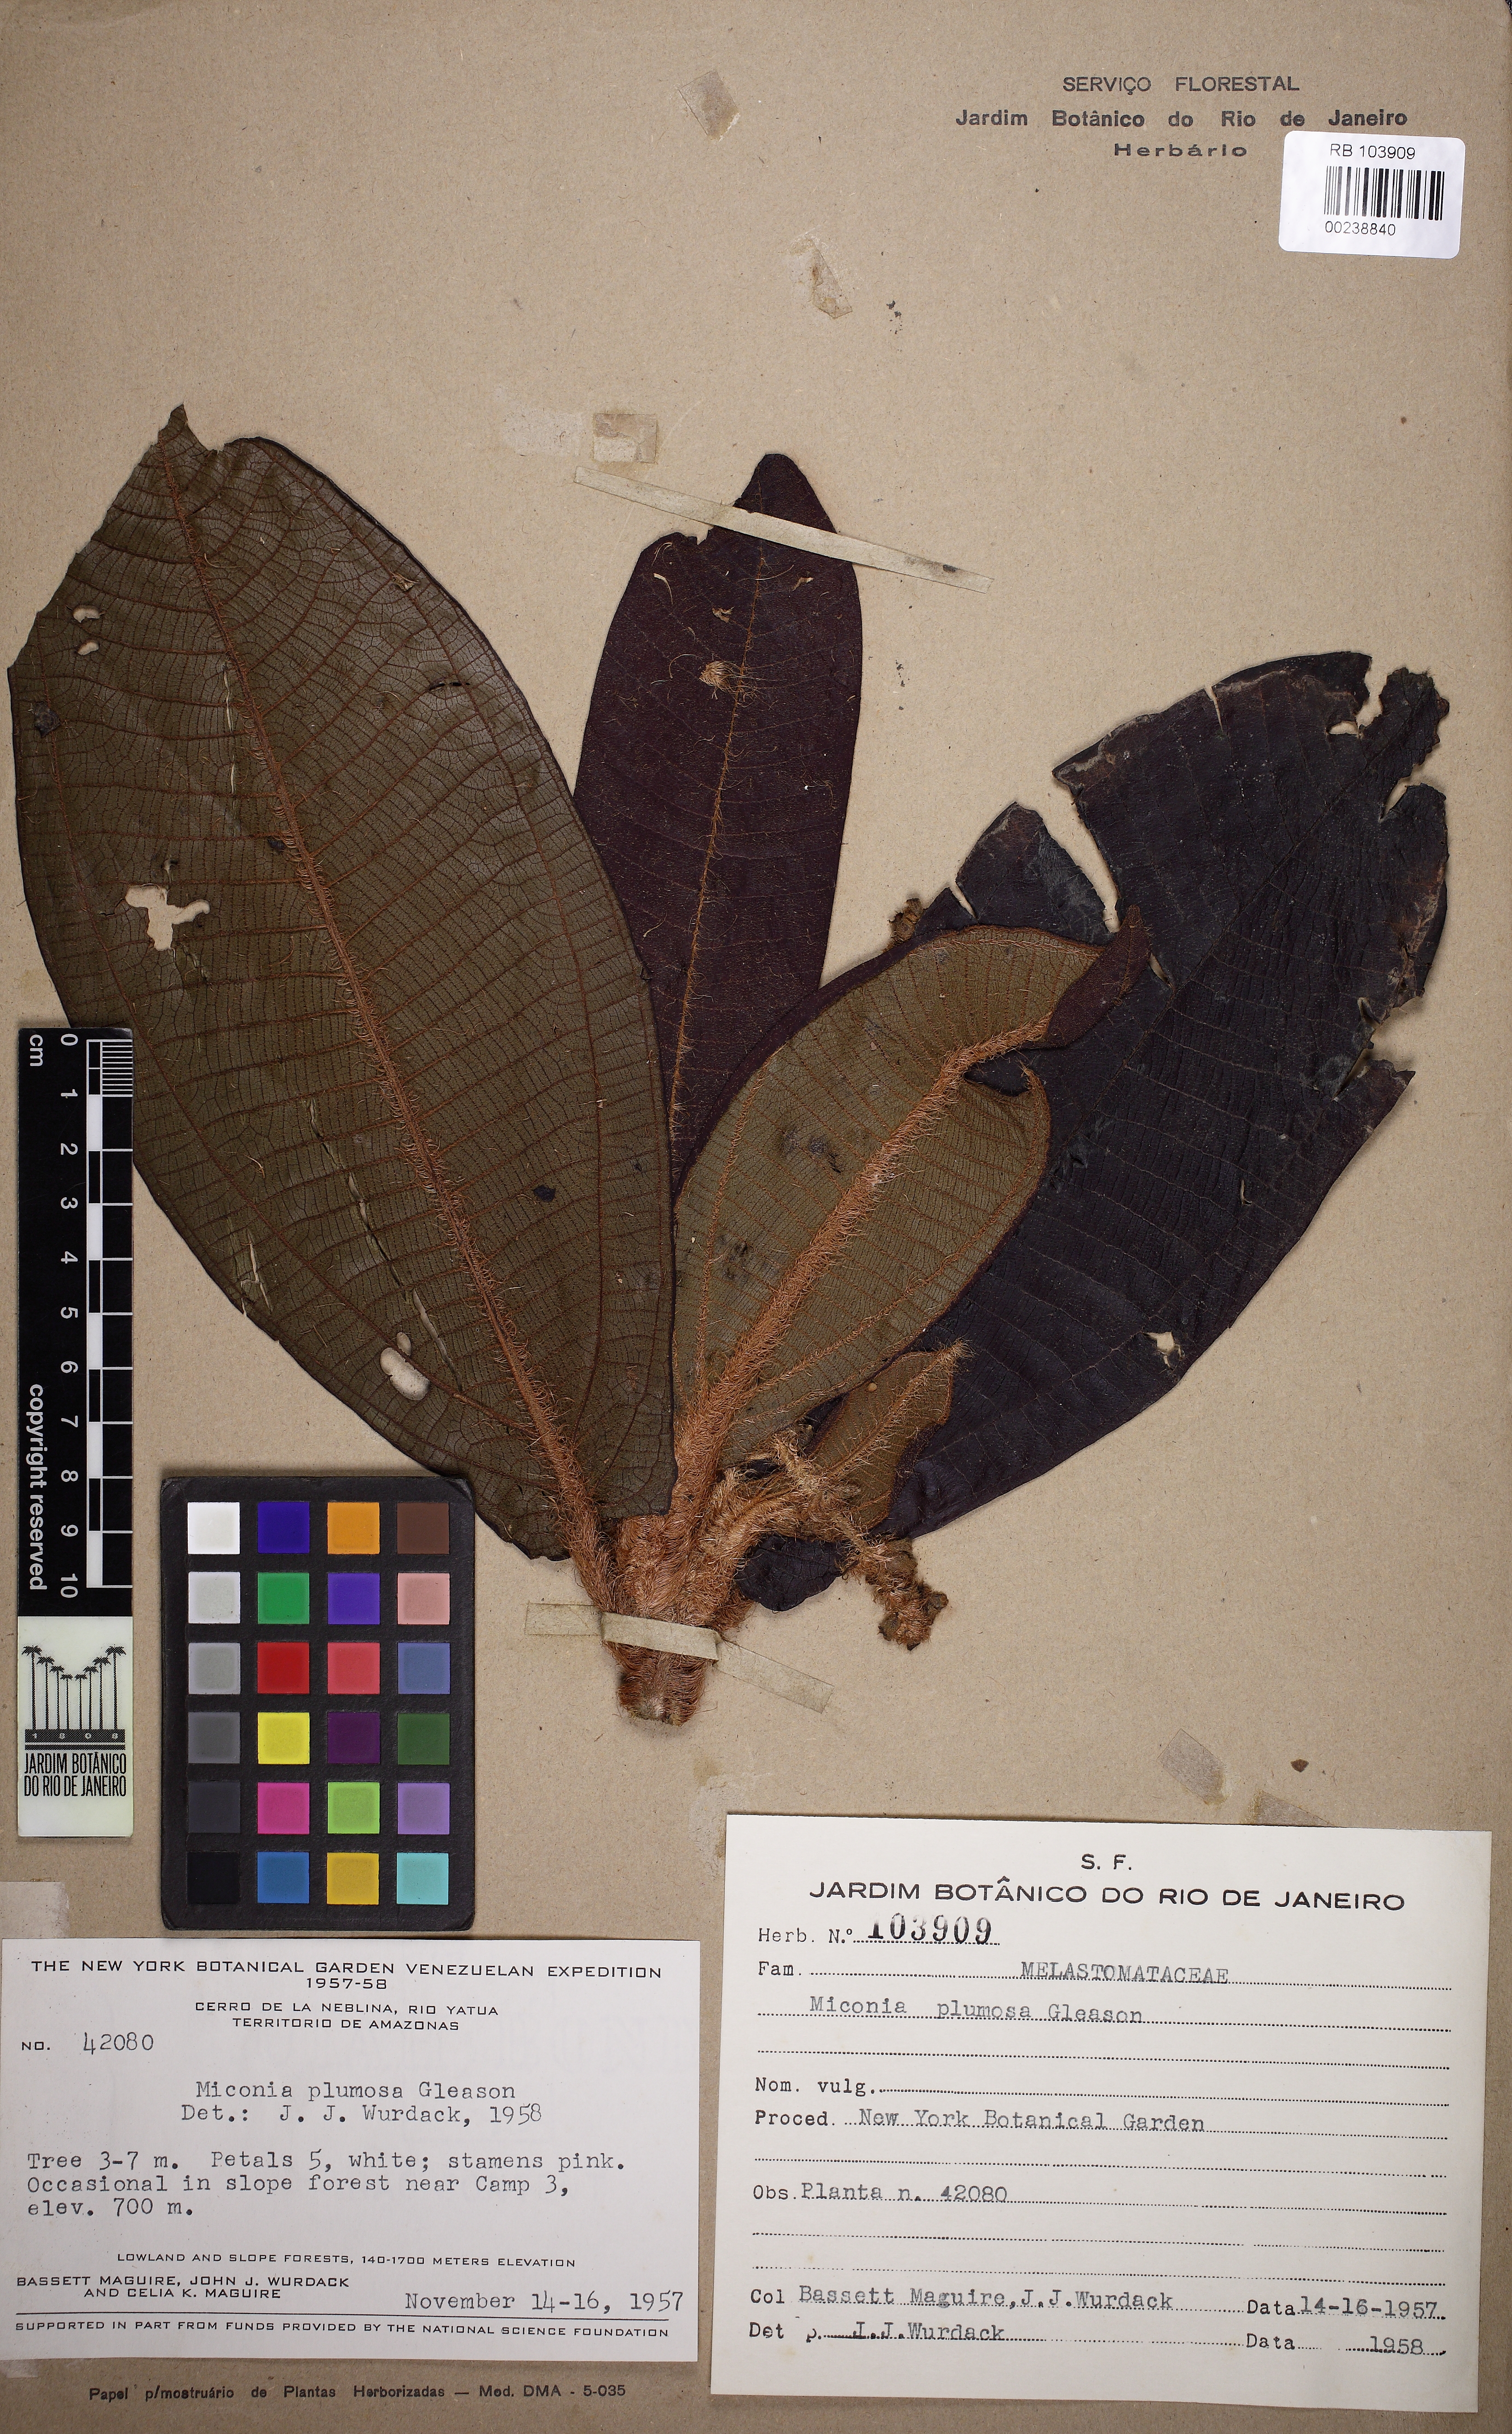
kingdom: Plantae
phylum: Tracheophyta
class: Magnoliopsida
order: Myrtales
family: Melastomataceae
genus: Miconia
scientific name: Miconia rugosa
